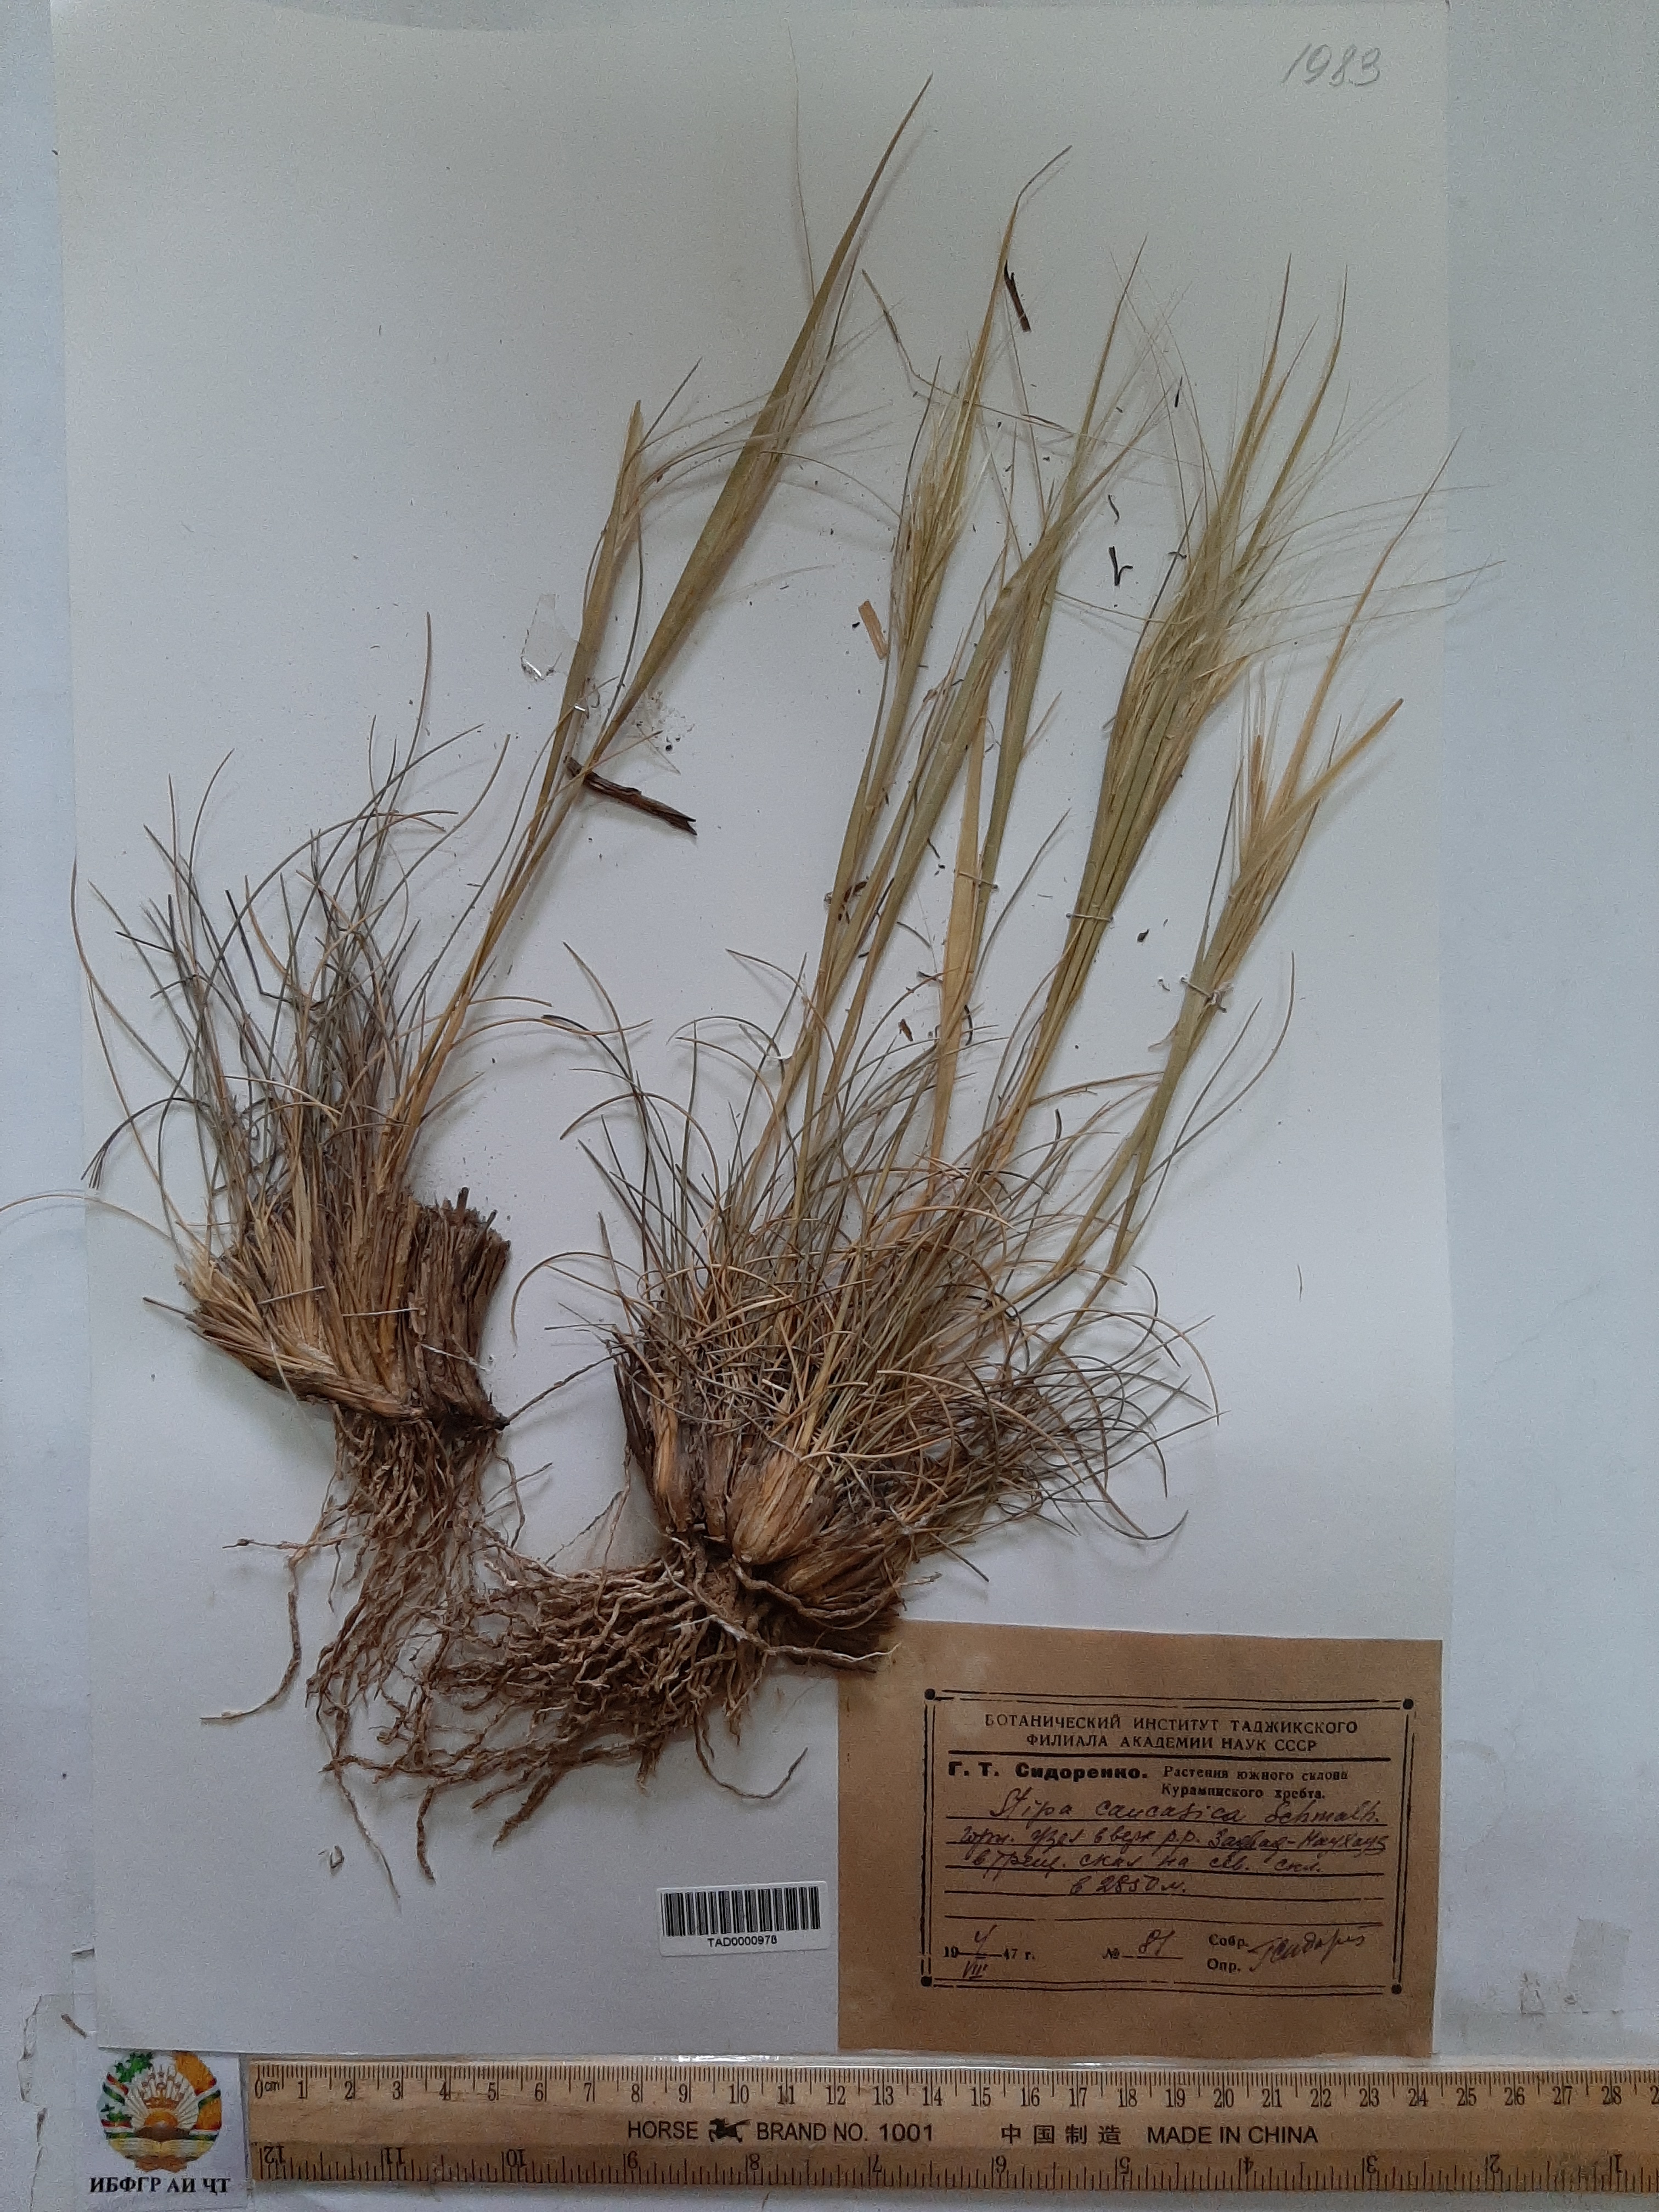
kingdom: Plantae
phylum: Tracheophyta
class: Liliopsida
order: Poales
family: Poaceae
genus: Stipa
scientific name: Stipa caucasica
